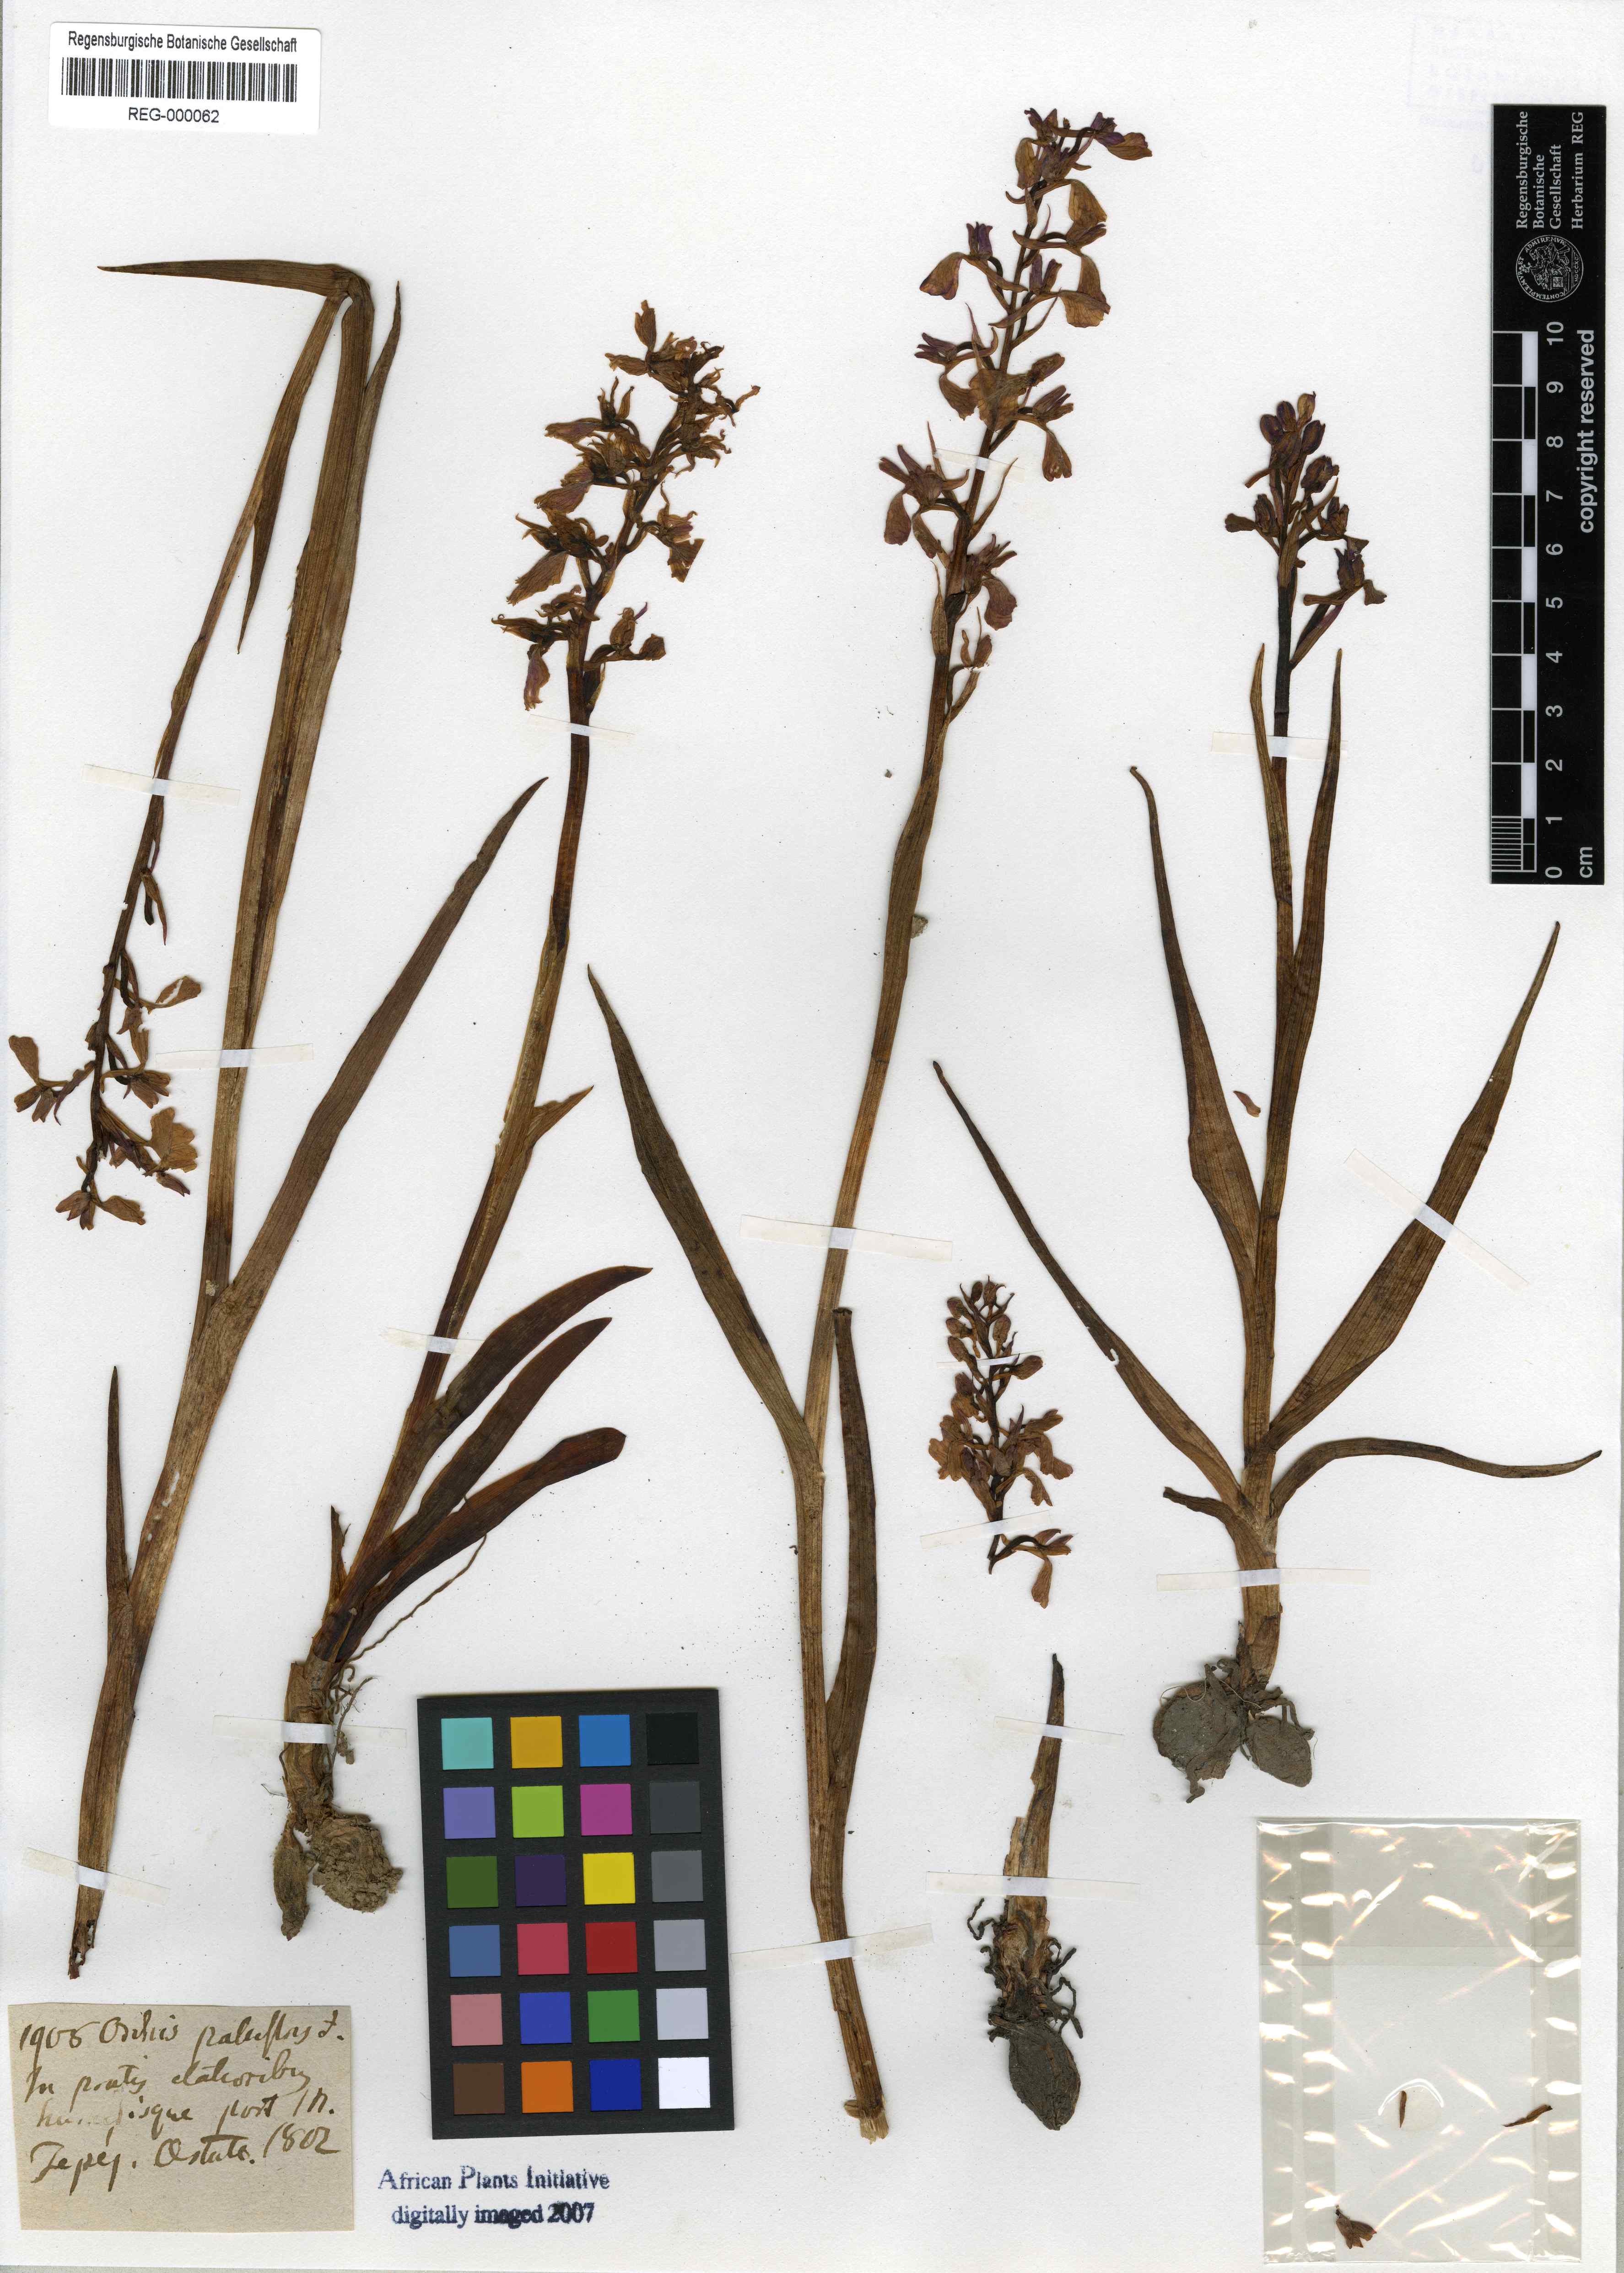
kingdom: Plantae
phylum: Tracheophyta
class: Liliopsida
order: Asparagales
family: Orchidaceae
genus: Anacamptis
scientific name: Anacamptis palustris
